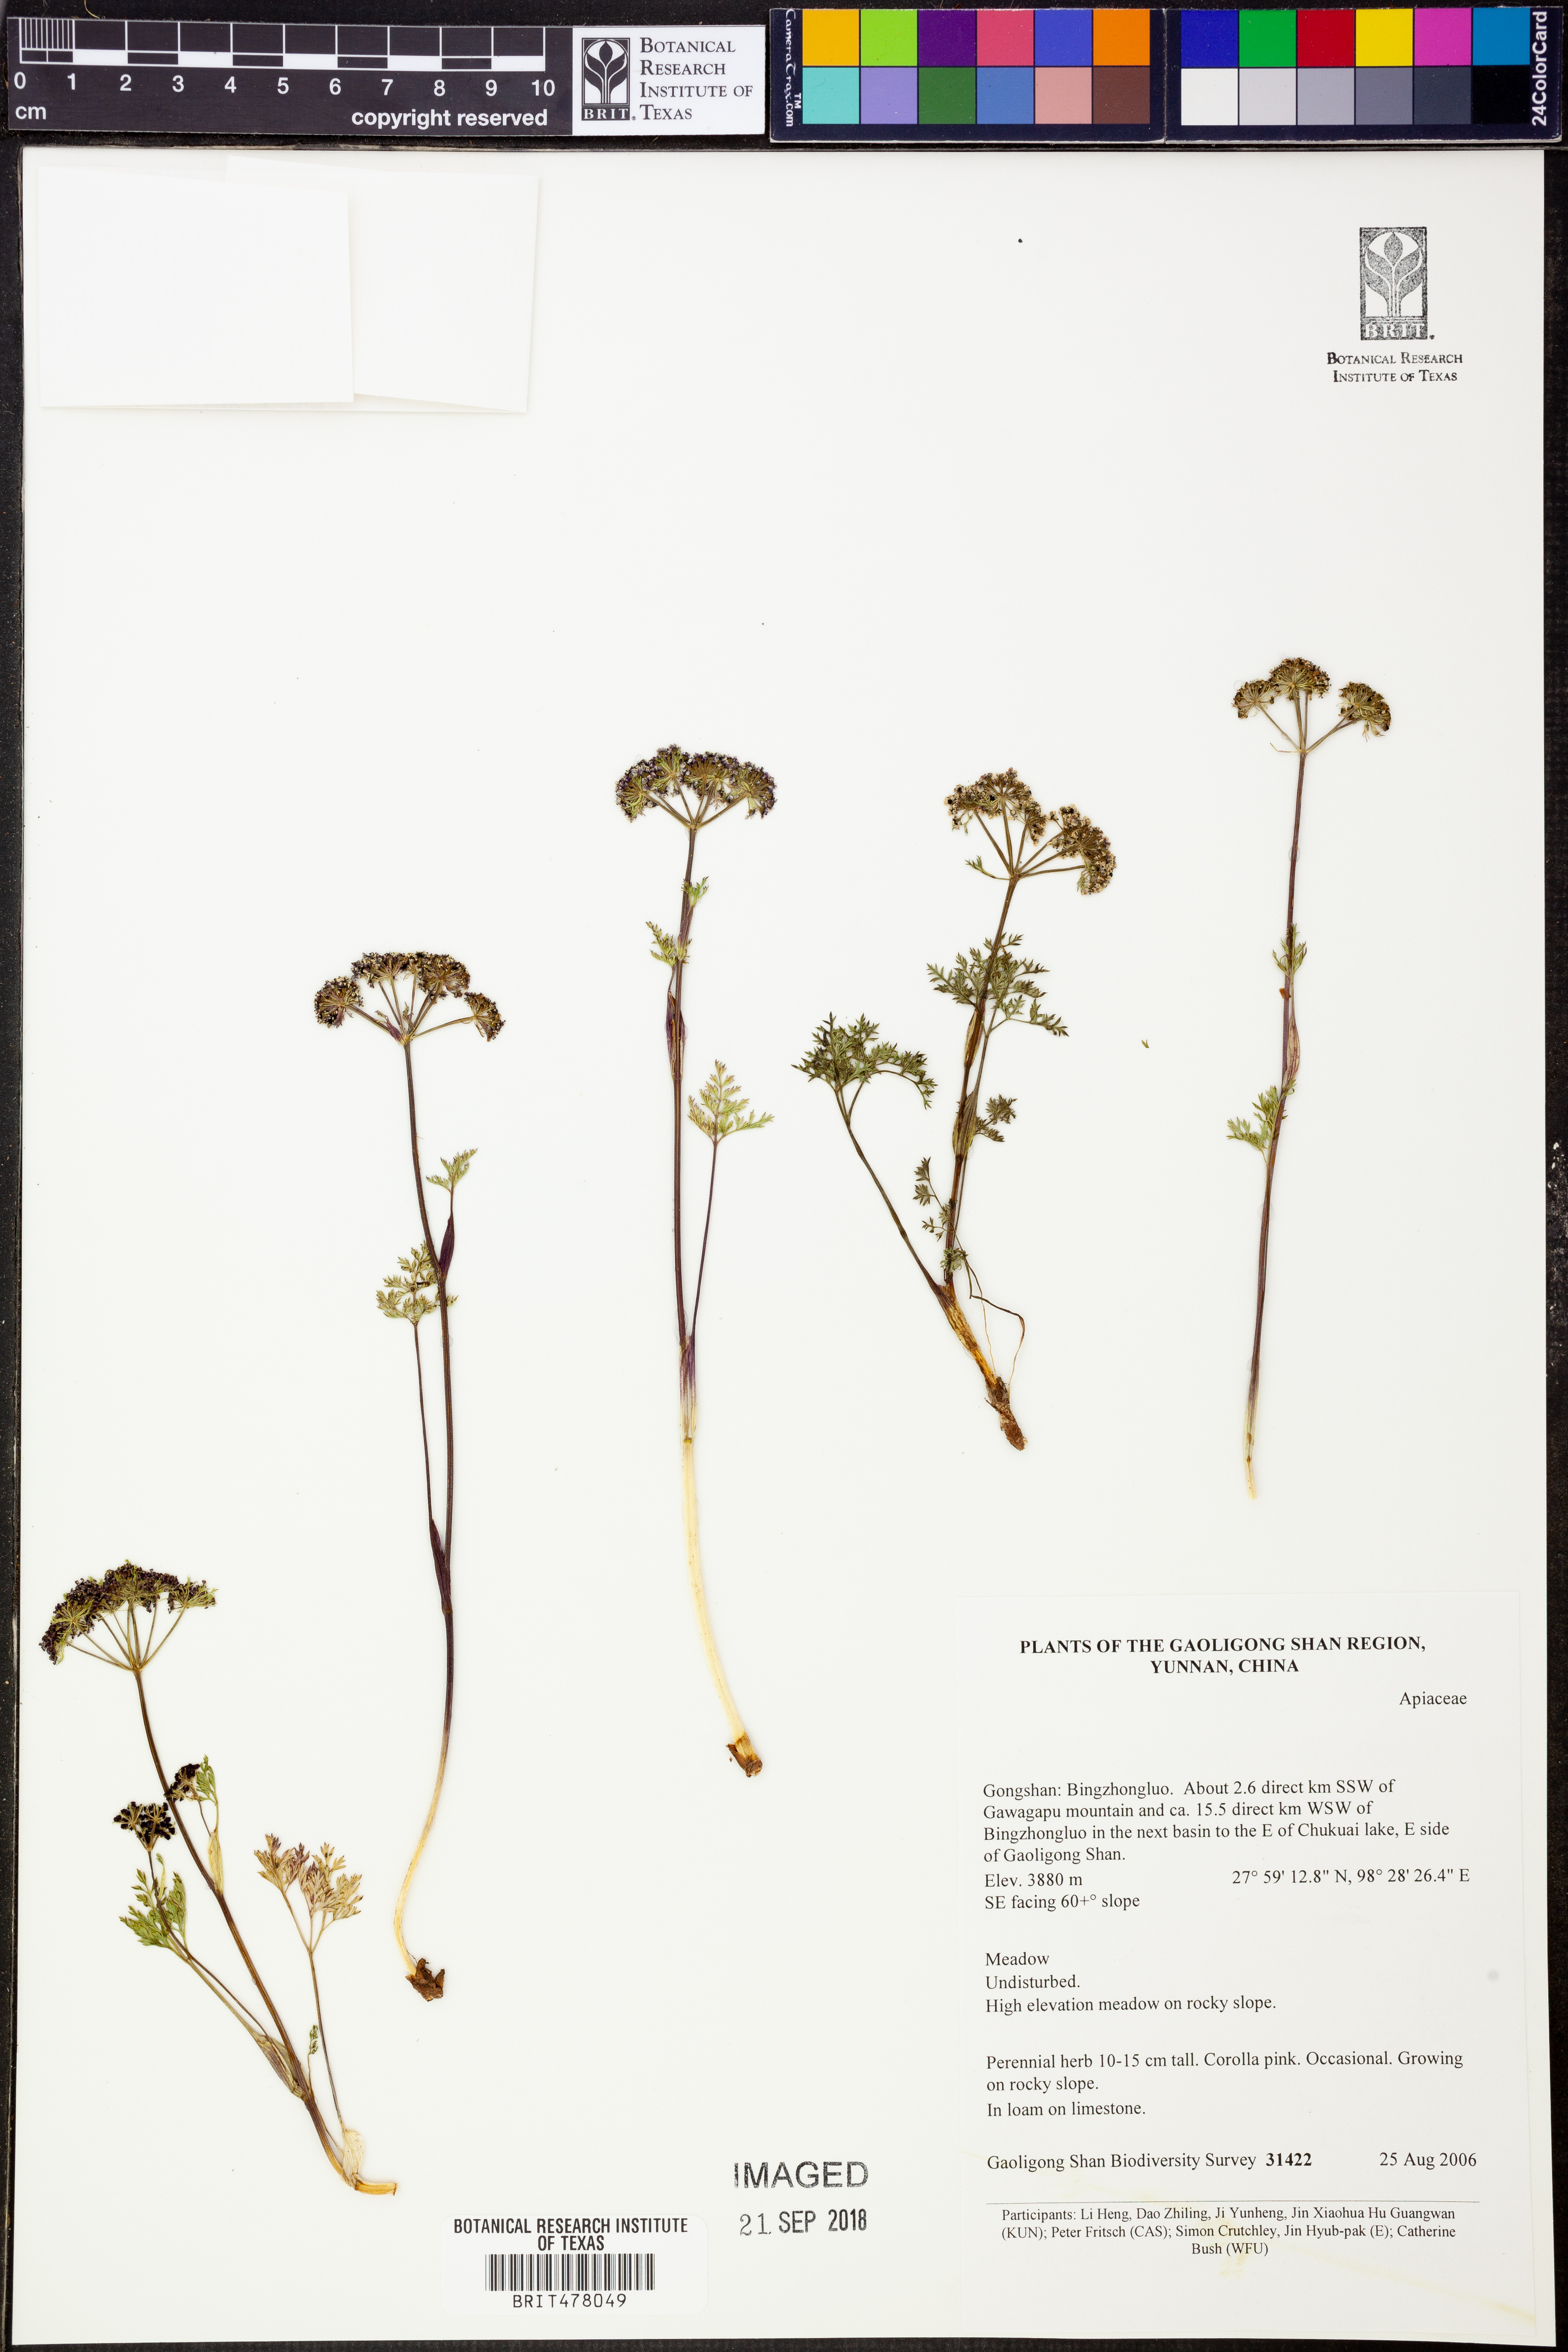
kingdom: Plantae
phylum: Tracheophyta
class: Magnoliopsida
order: Apiales
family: Apiaceae
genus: Trachydium
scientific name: Trachydium
